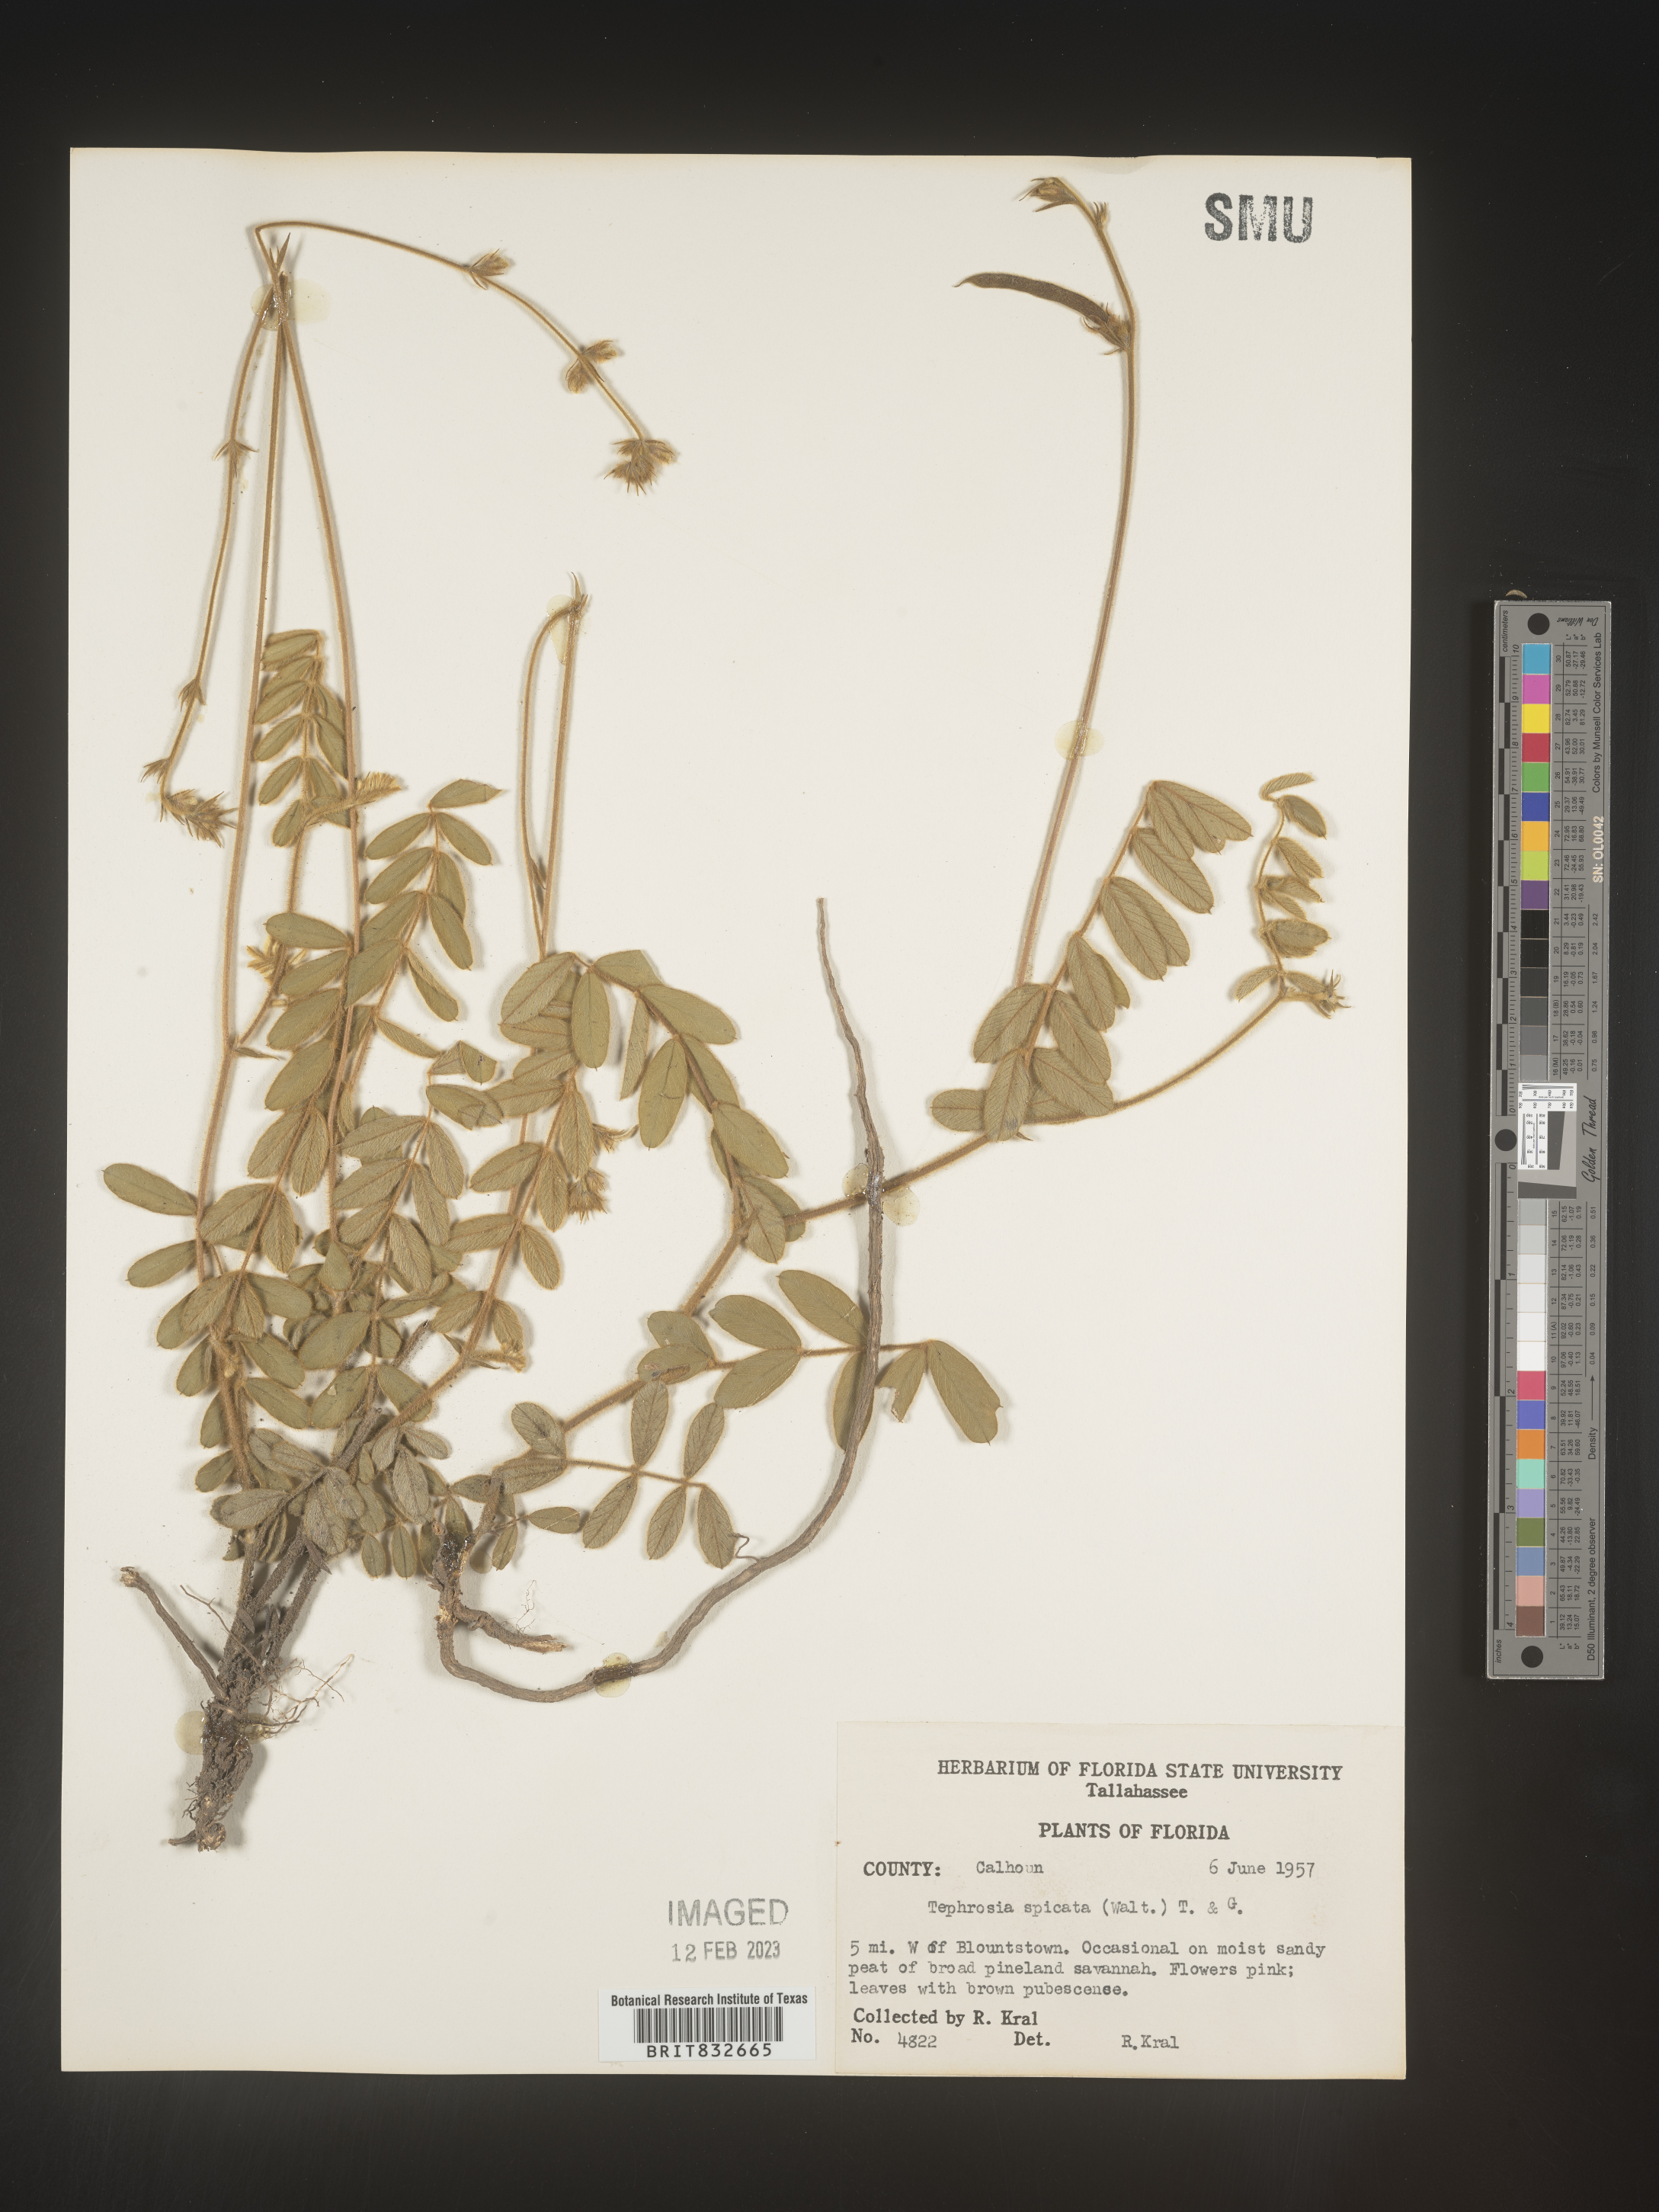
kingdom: Plantae
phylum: Tracheophyta
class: Magnoliopsida
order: Fabales
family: Fabaceae
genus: Tephrosia
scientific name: Tephrosia spicata
